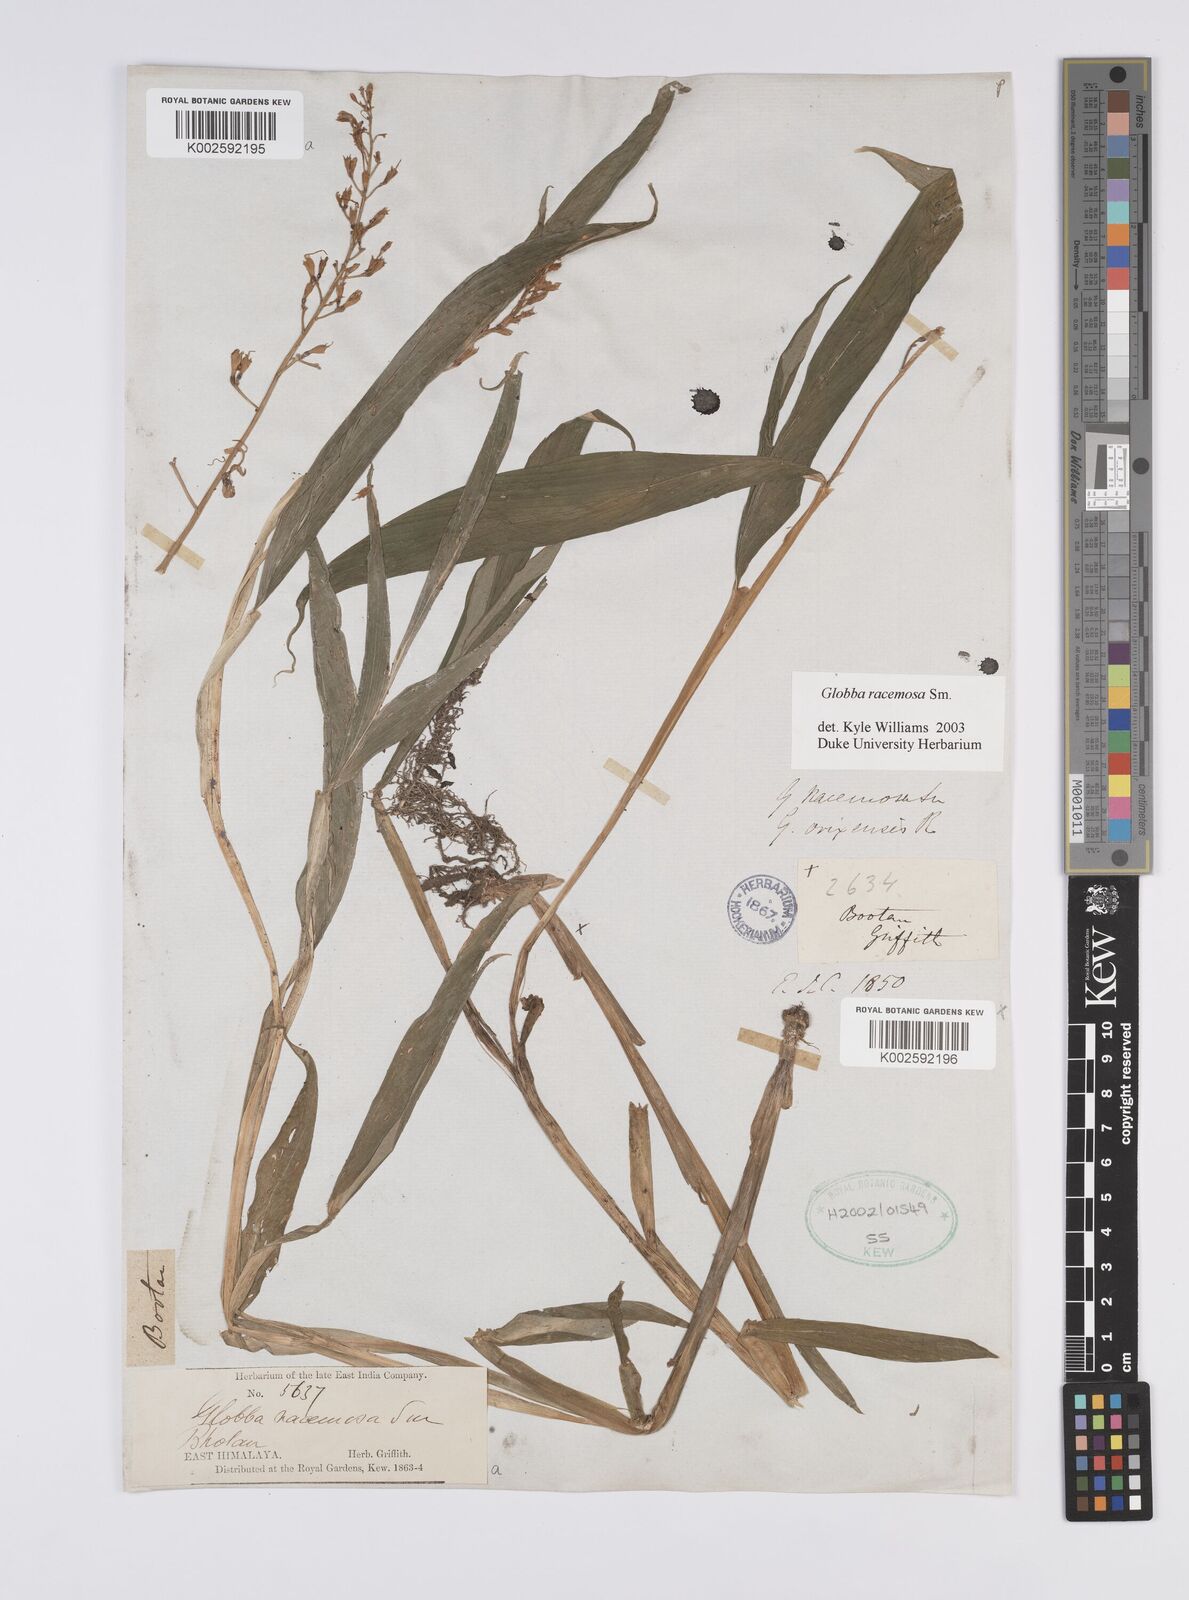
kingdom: Plantae
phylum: Tracheophyta
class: Liliopsida
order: Zingiberales
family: Zingiberaceae
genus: Globba
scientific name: Globba racemosa
